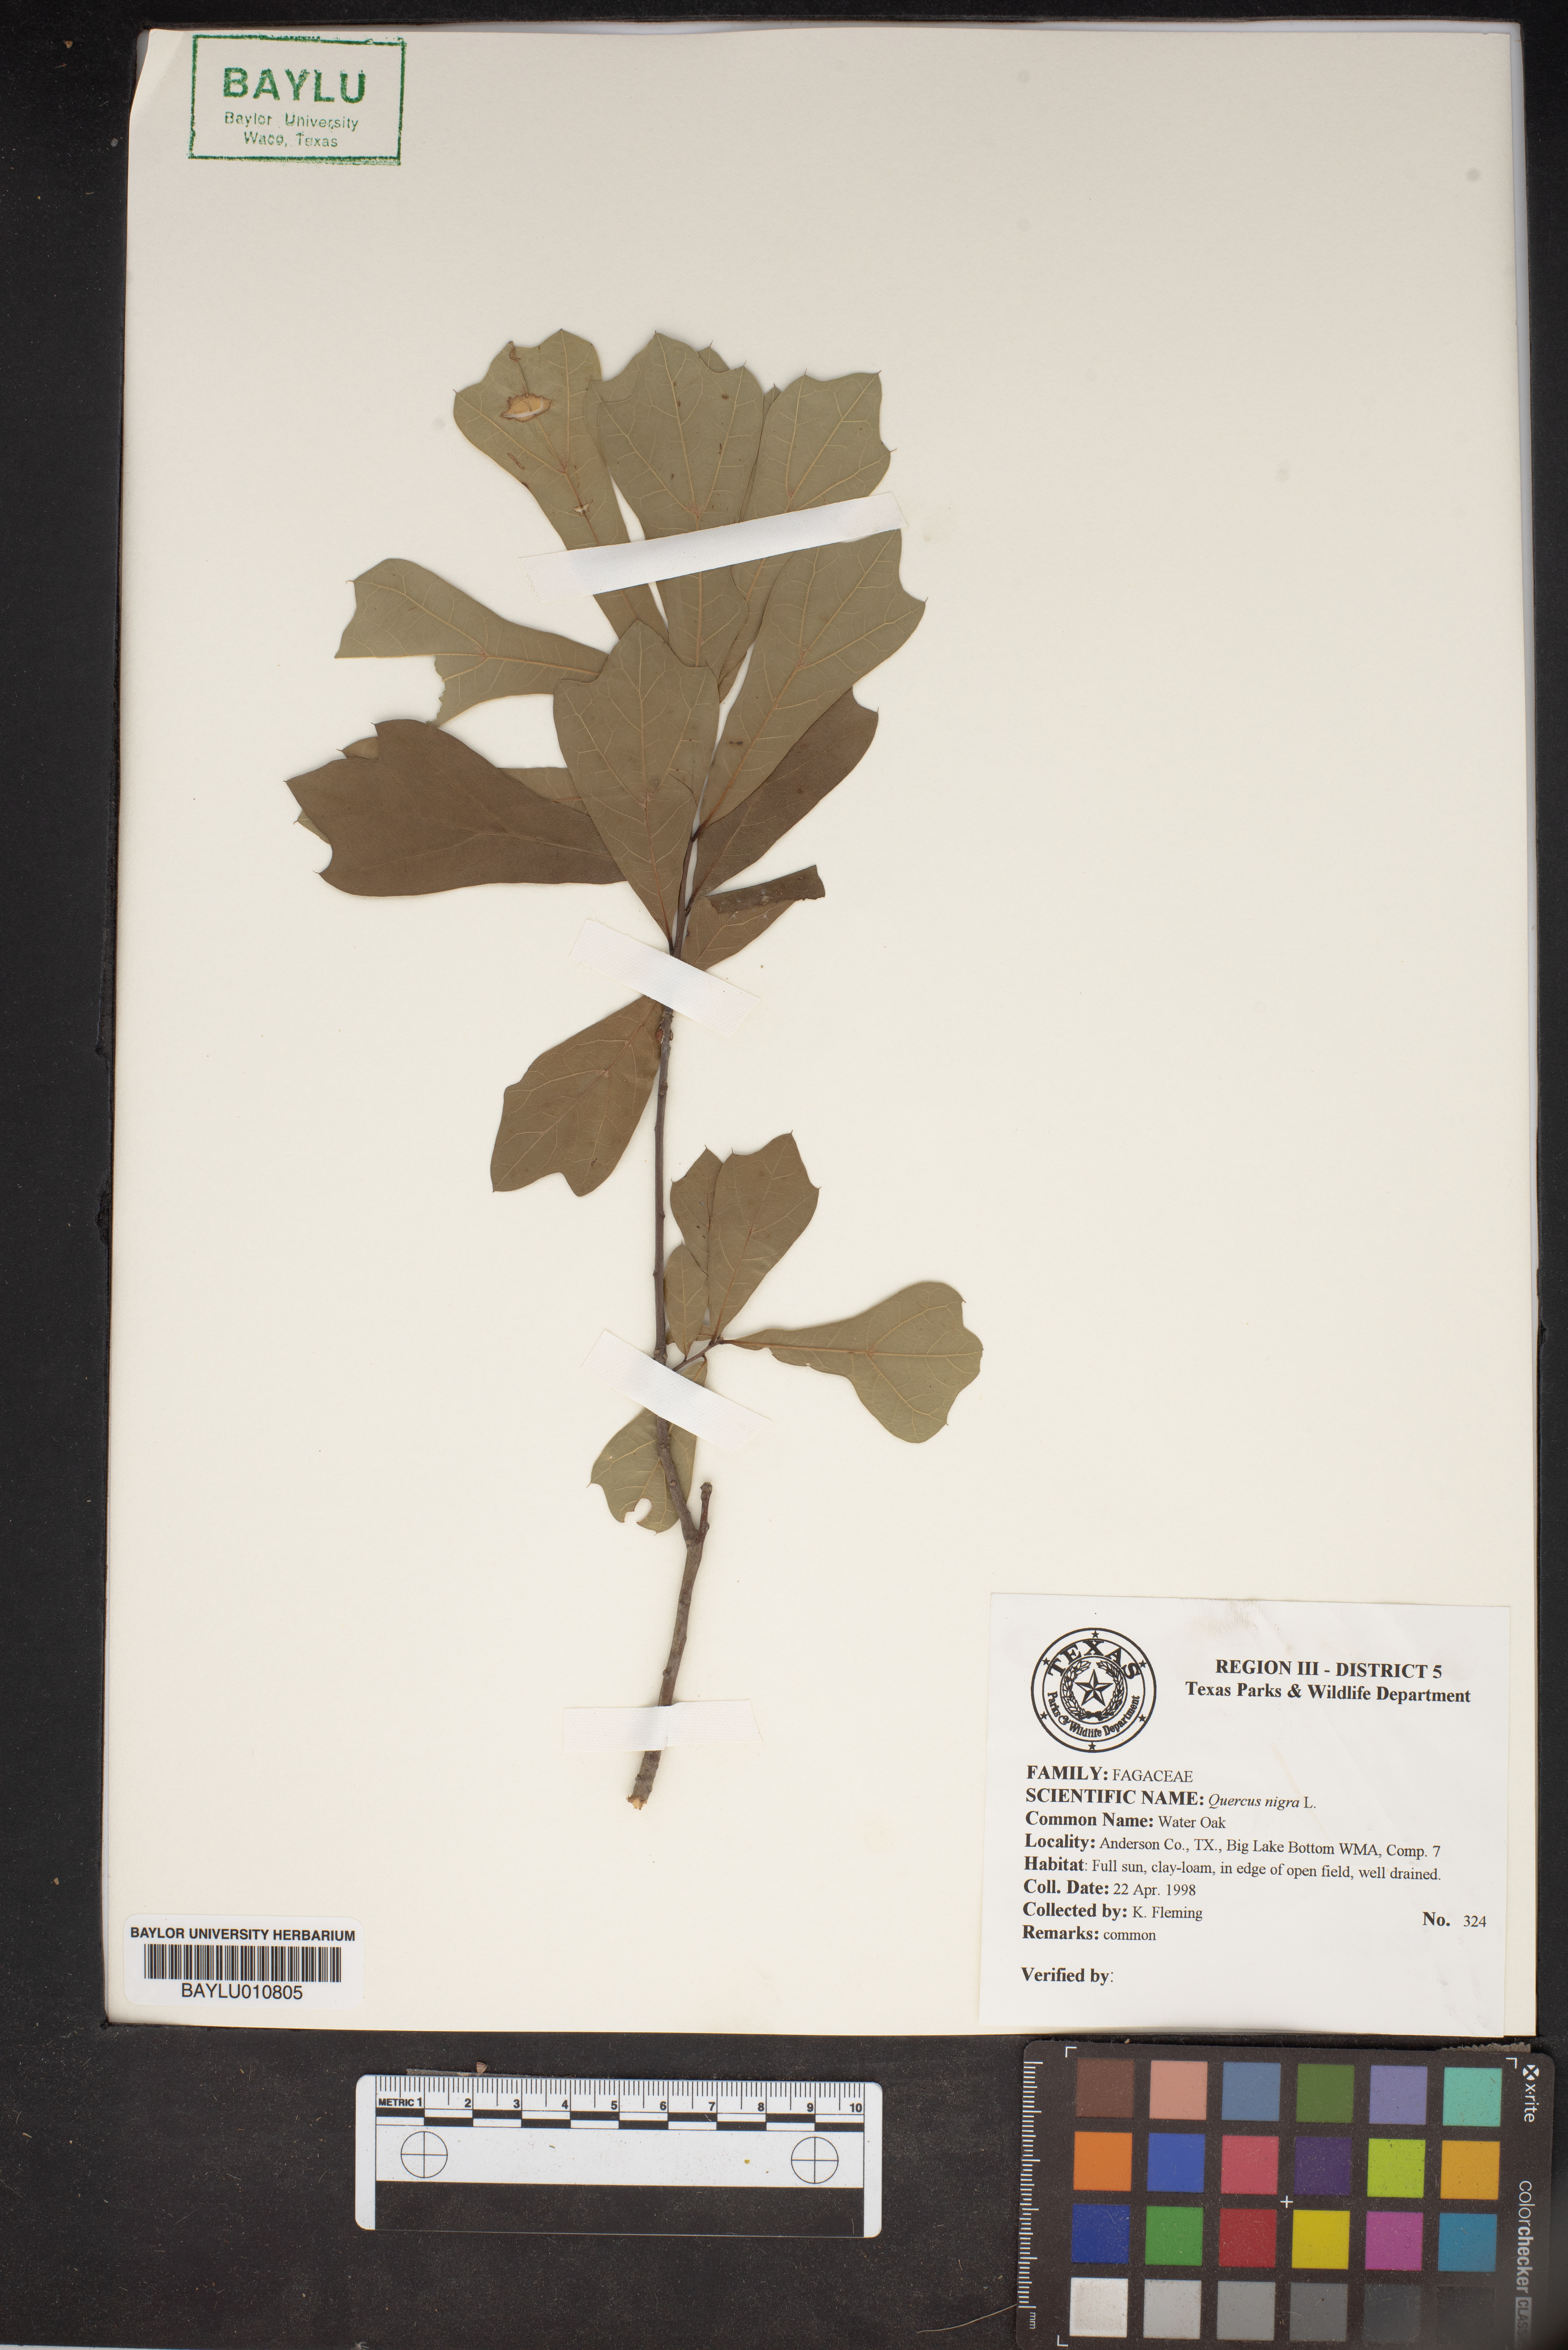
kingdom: Plantae
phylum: Tracheophyta
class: Magnoliopsida
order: Fagales
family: Fagaceae
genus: Quercus
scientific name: Quercus nigra
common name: Water oak
